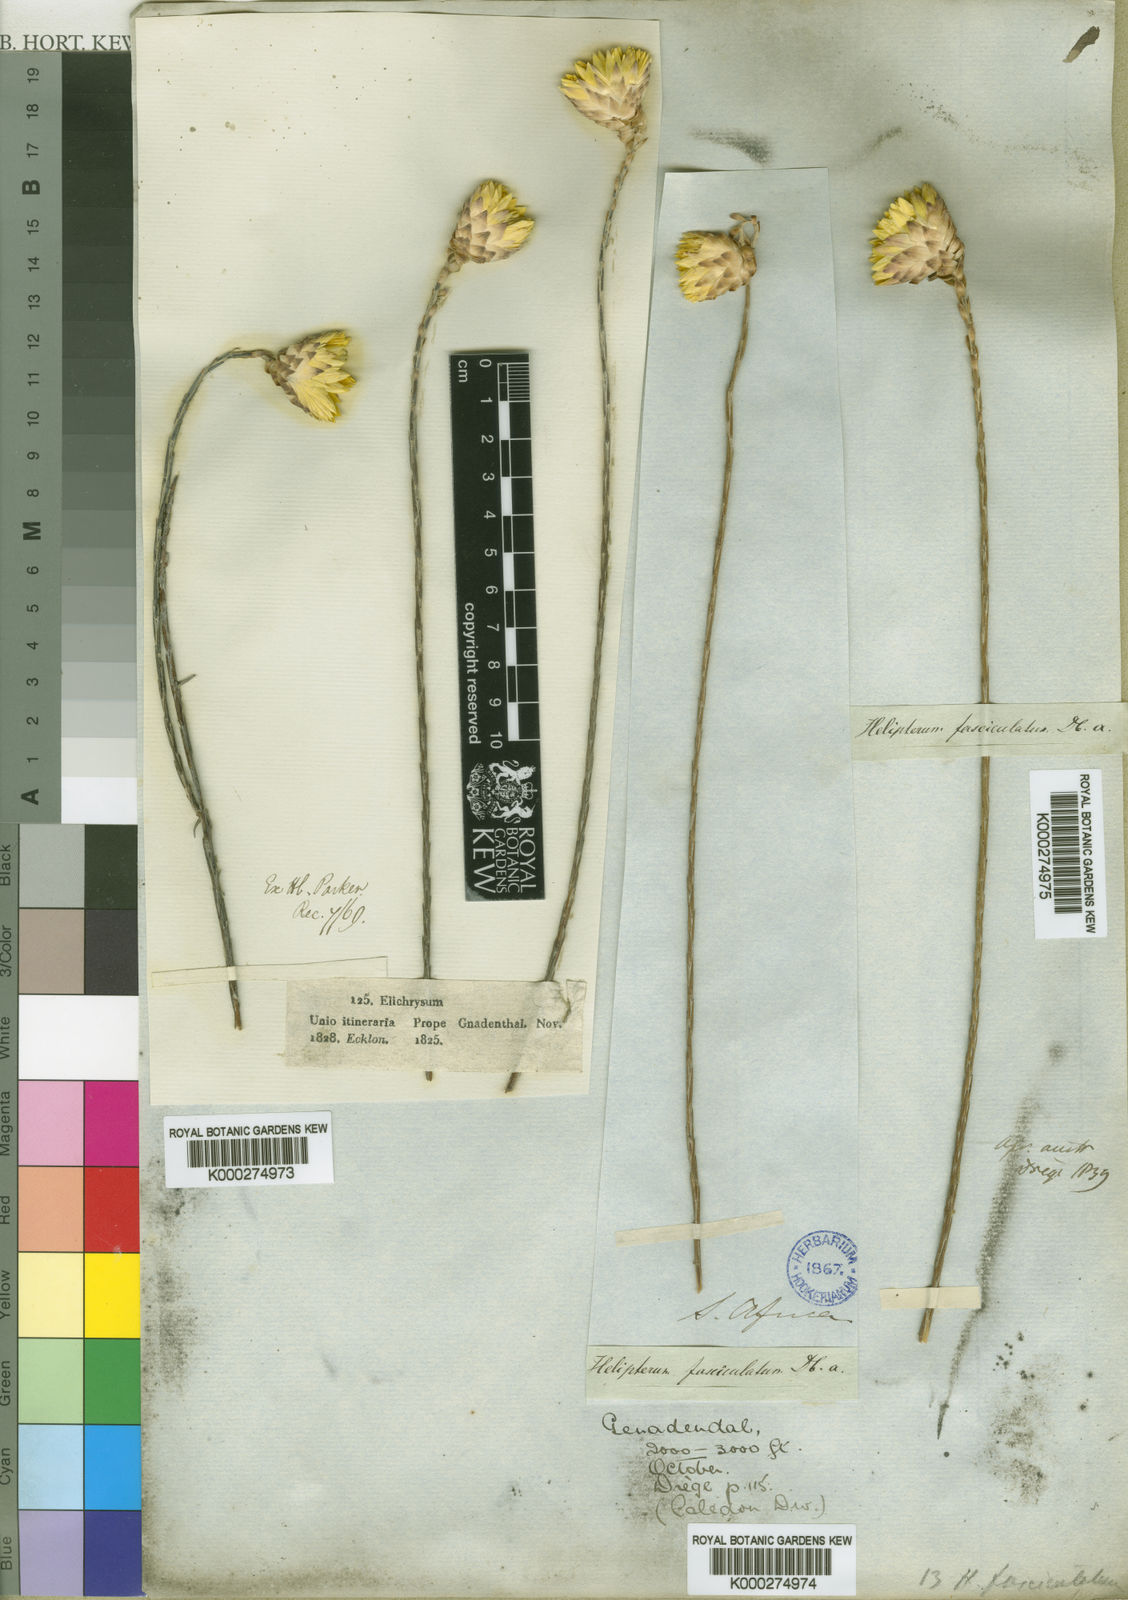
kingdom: Plantae
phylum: Tracheophyta
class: Magnoliopsida
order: Asterales
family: Asteraceae
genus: Edmondia
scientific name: Edmondia sesamoides
